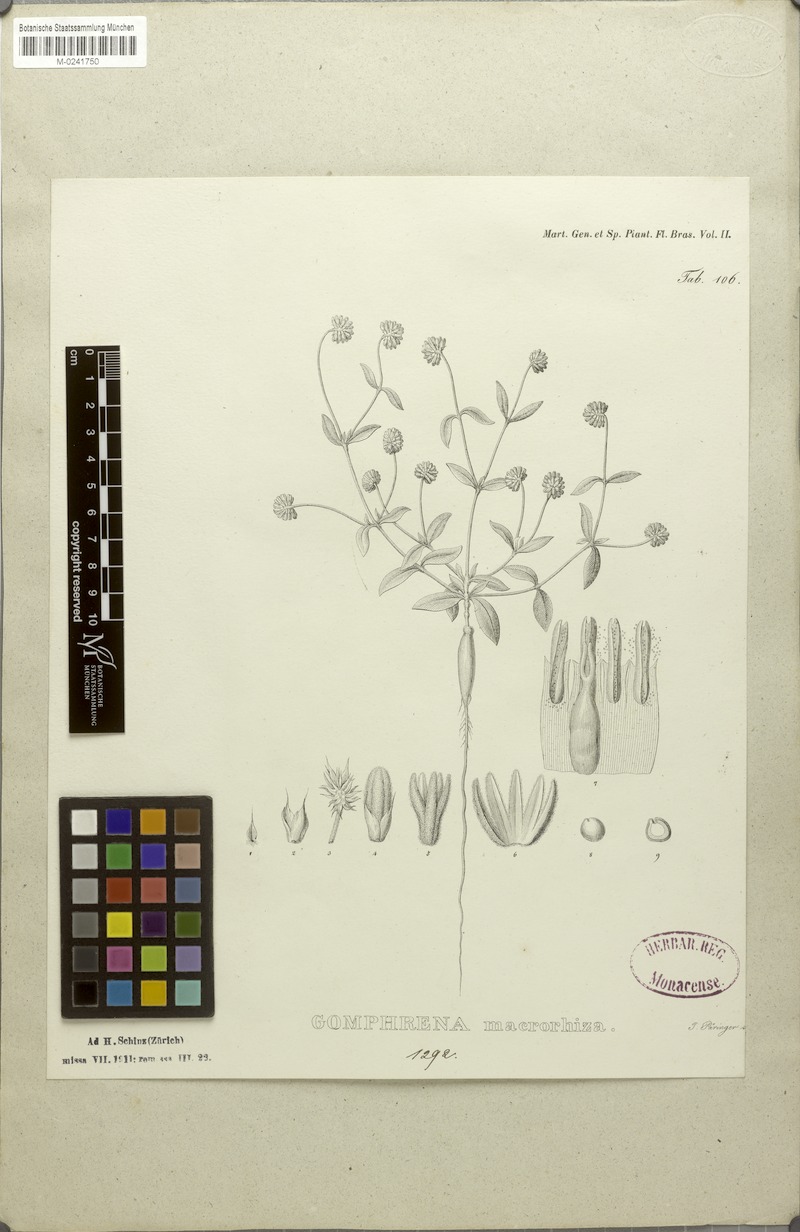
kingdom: Plantae
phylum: Tracheophyta
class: Magnoliopsida
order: Caryophyllales
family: Amaranthaceae
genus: Gomphrena
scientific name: Gomphrena macrorhiza
